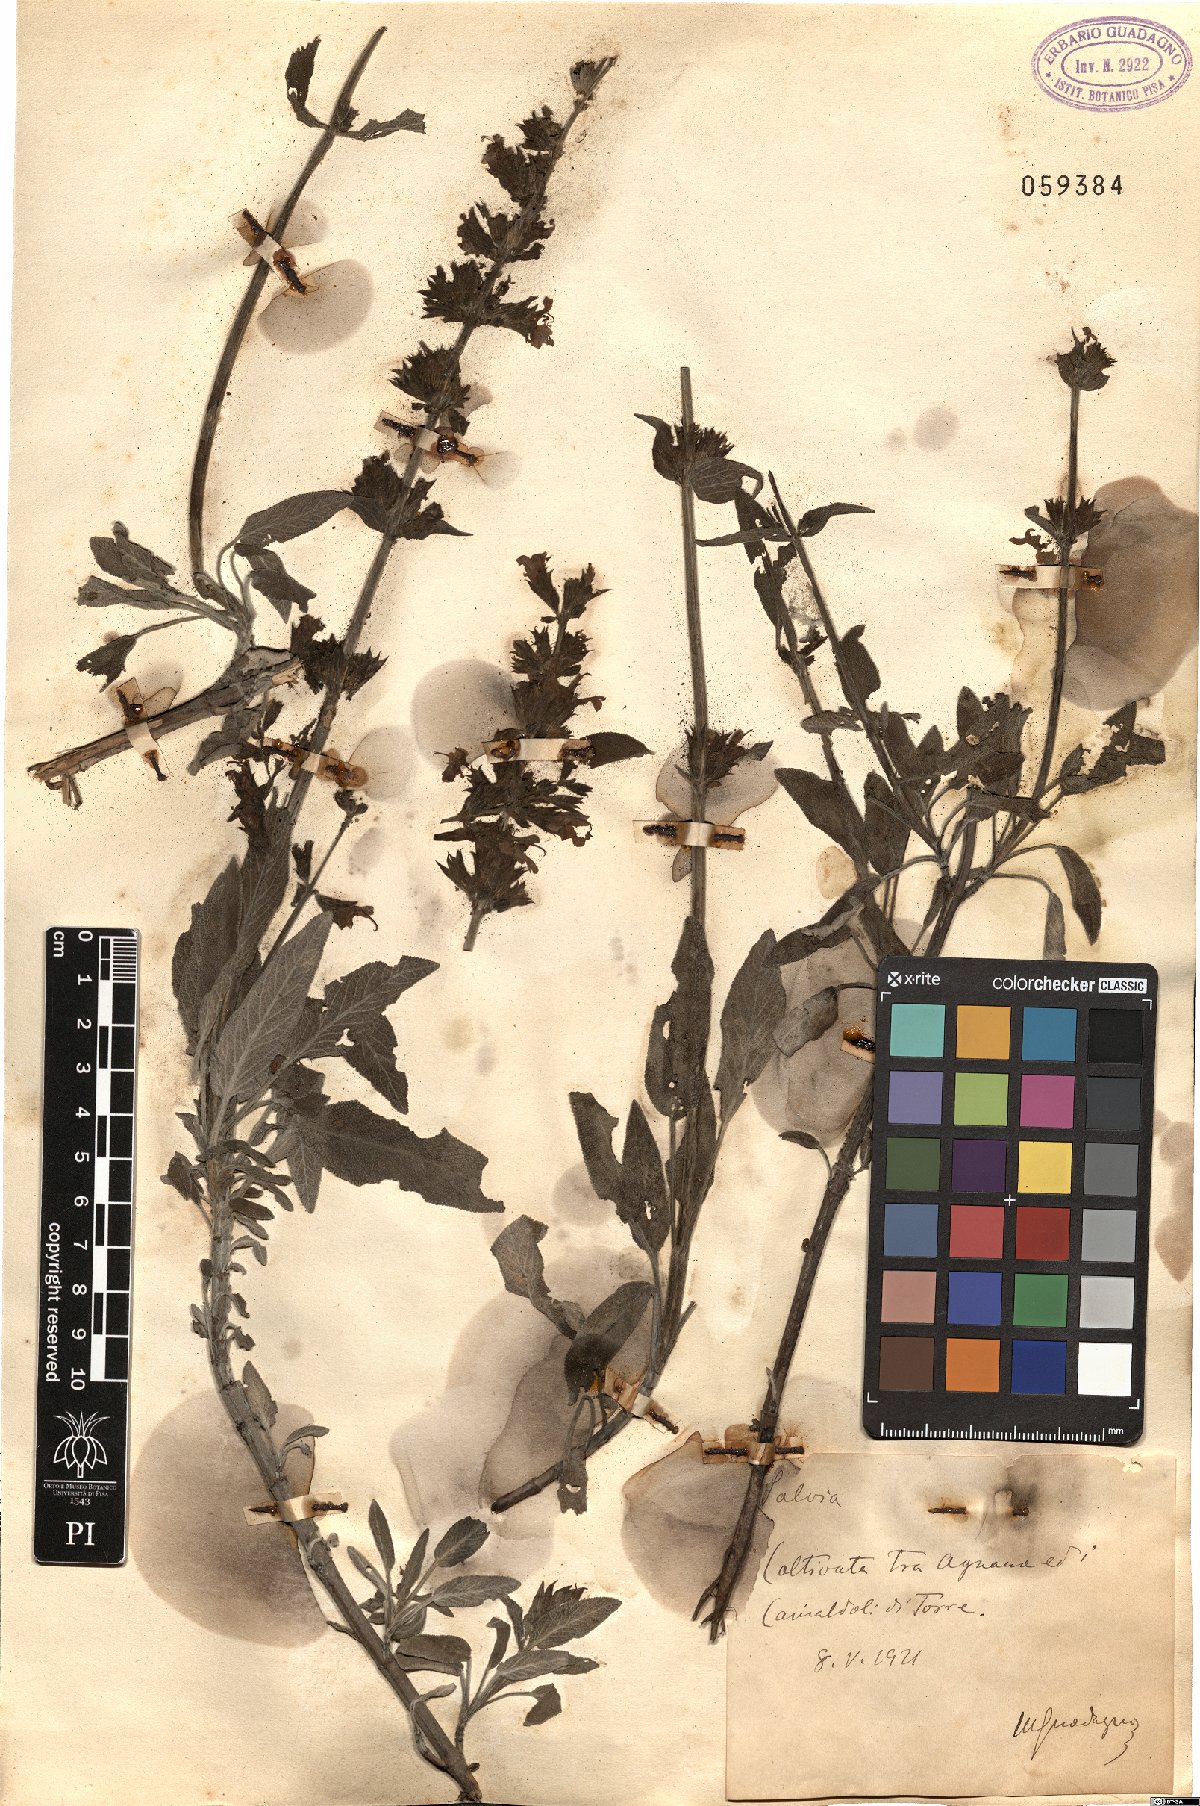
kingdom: Plantae
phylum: Tracheophyta
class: Magnoliopsida
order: Lamiales
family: Lamiaceae
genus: Salvia
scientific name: Salvia
